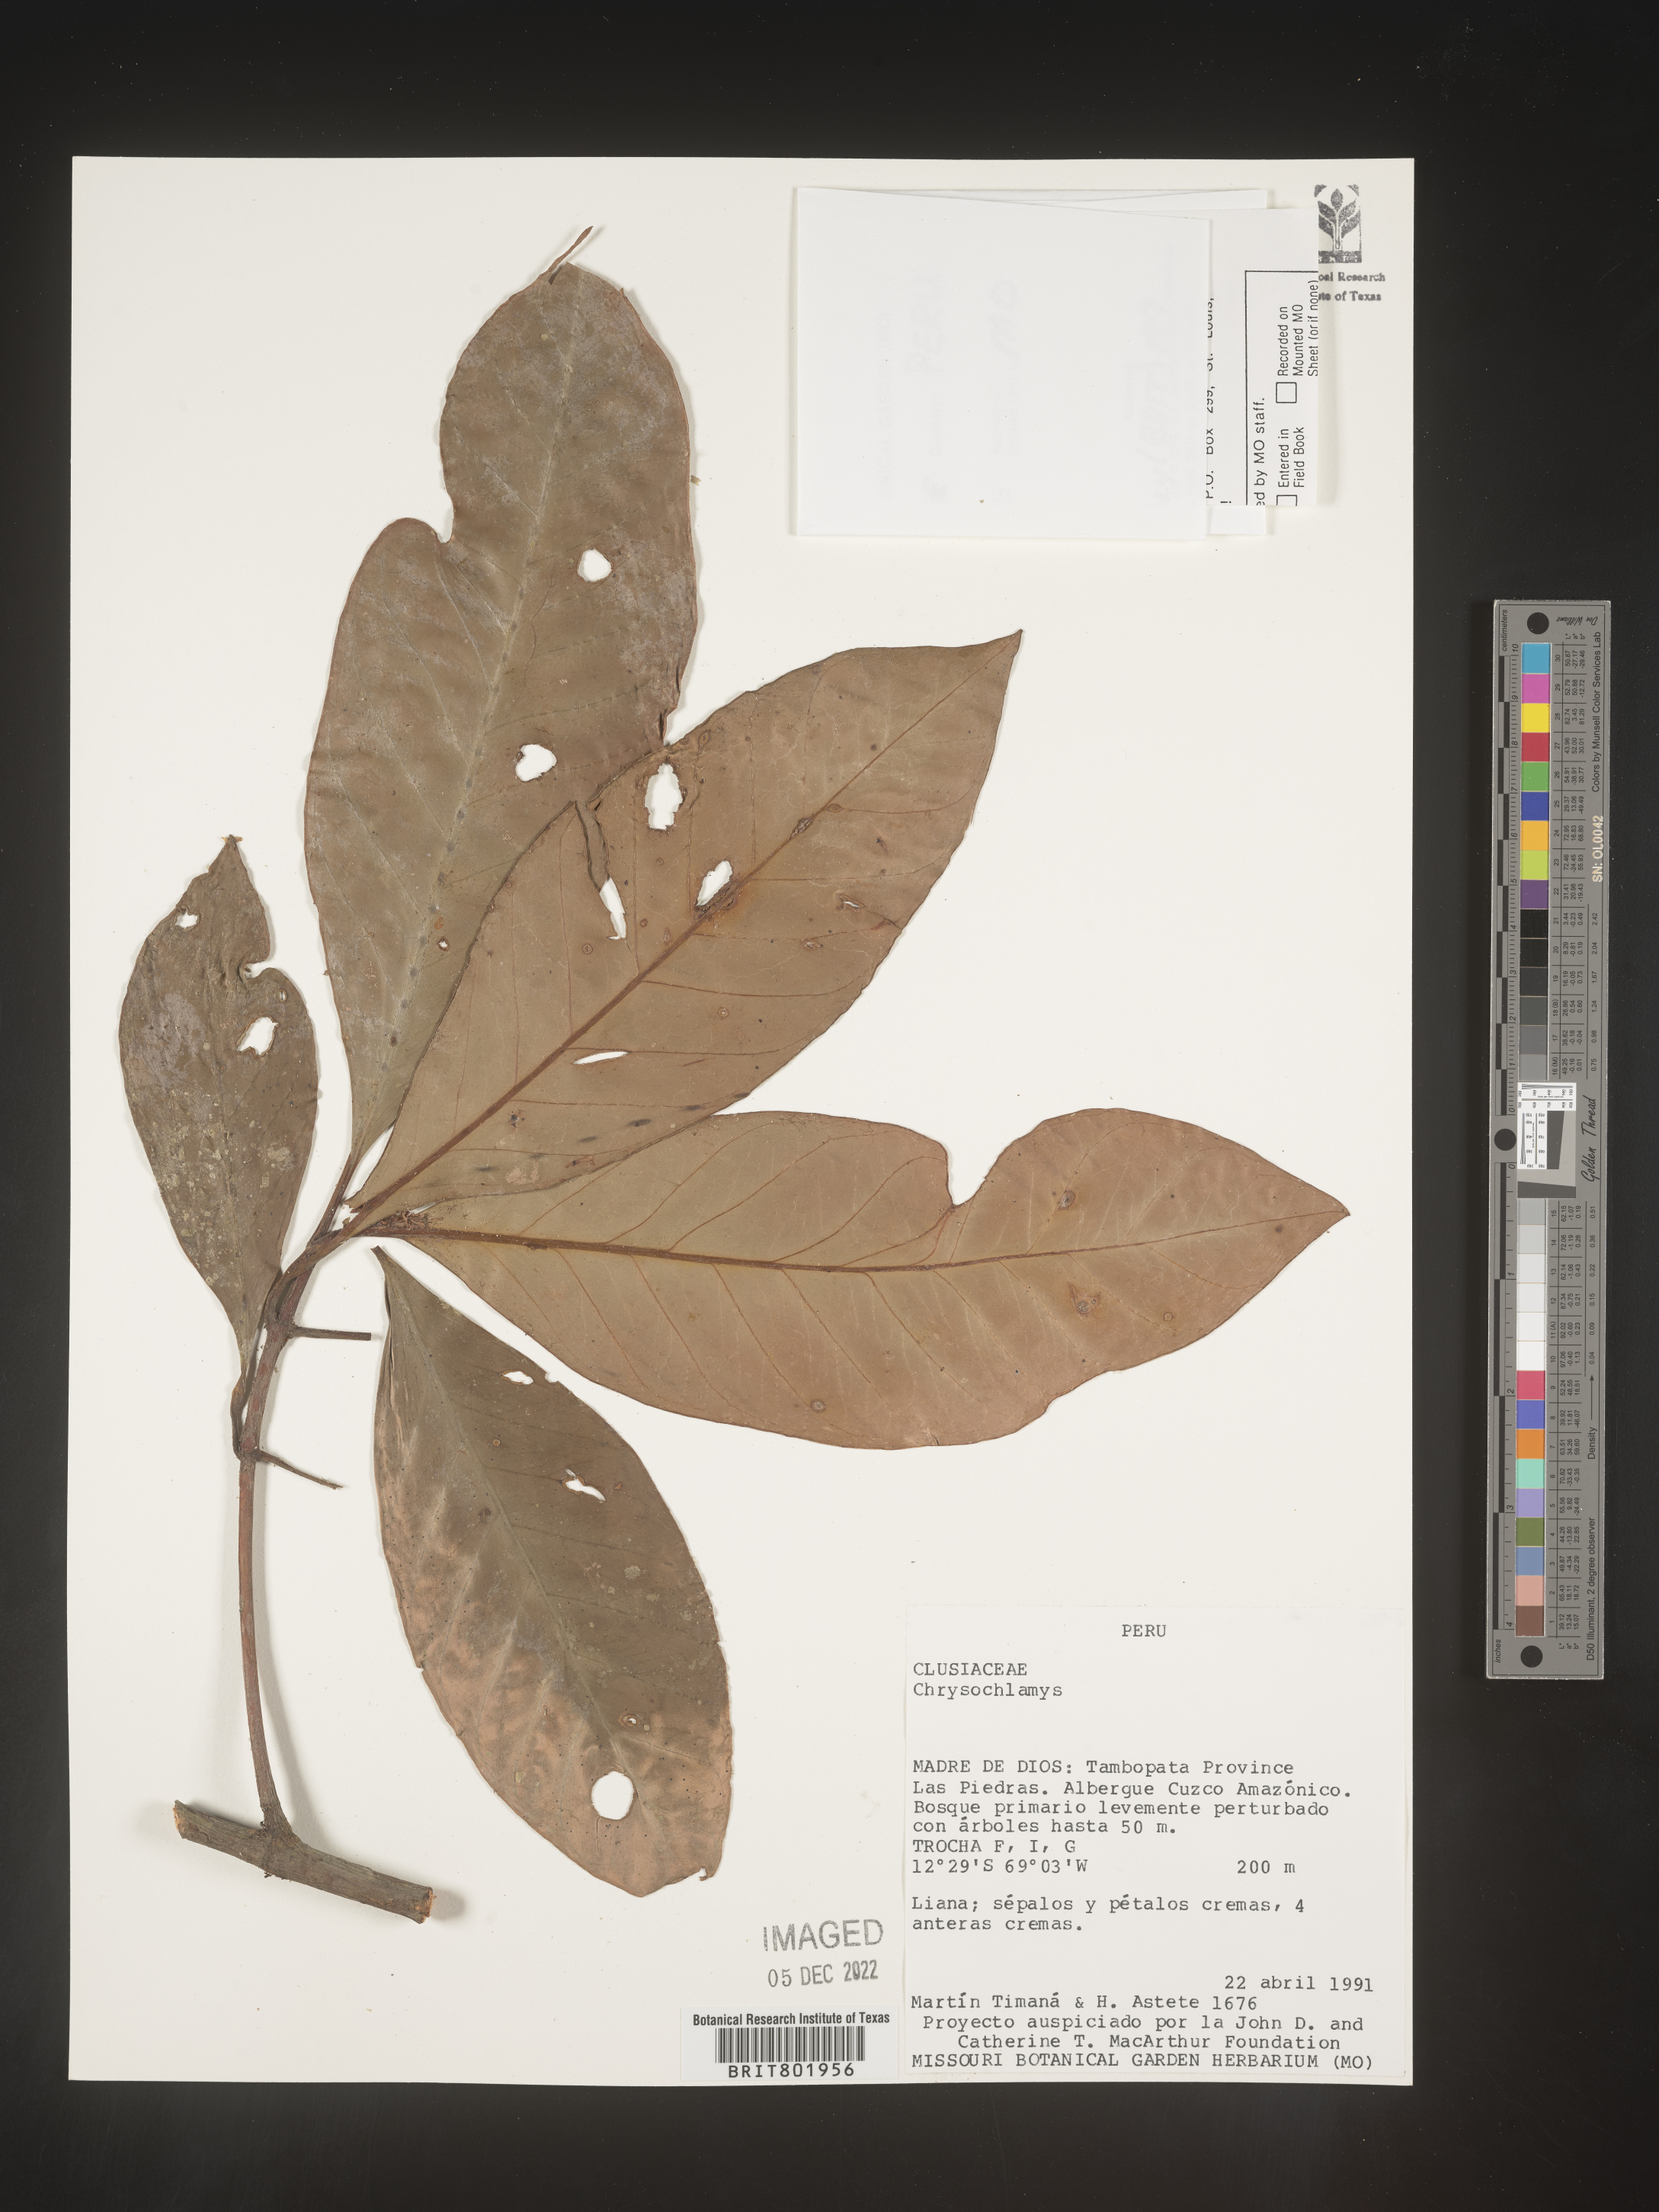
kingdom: Plantae
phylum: Tracheophyta
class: Magnoliopsida
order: Malpighiales
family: Clusiaceae
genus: Chrysochlamys
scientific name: Chrysochlamys
